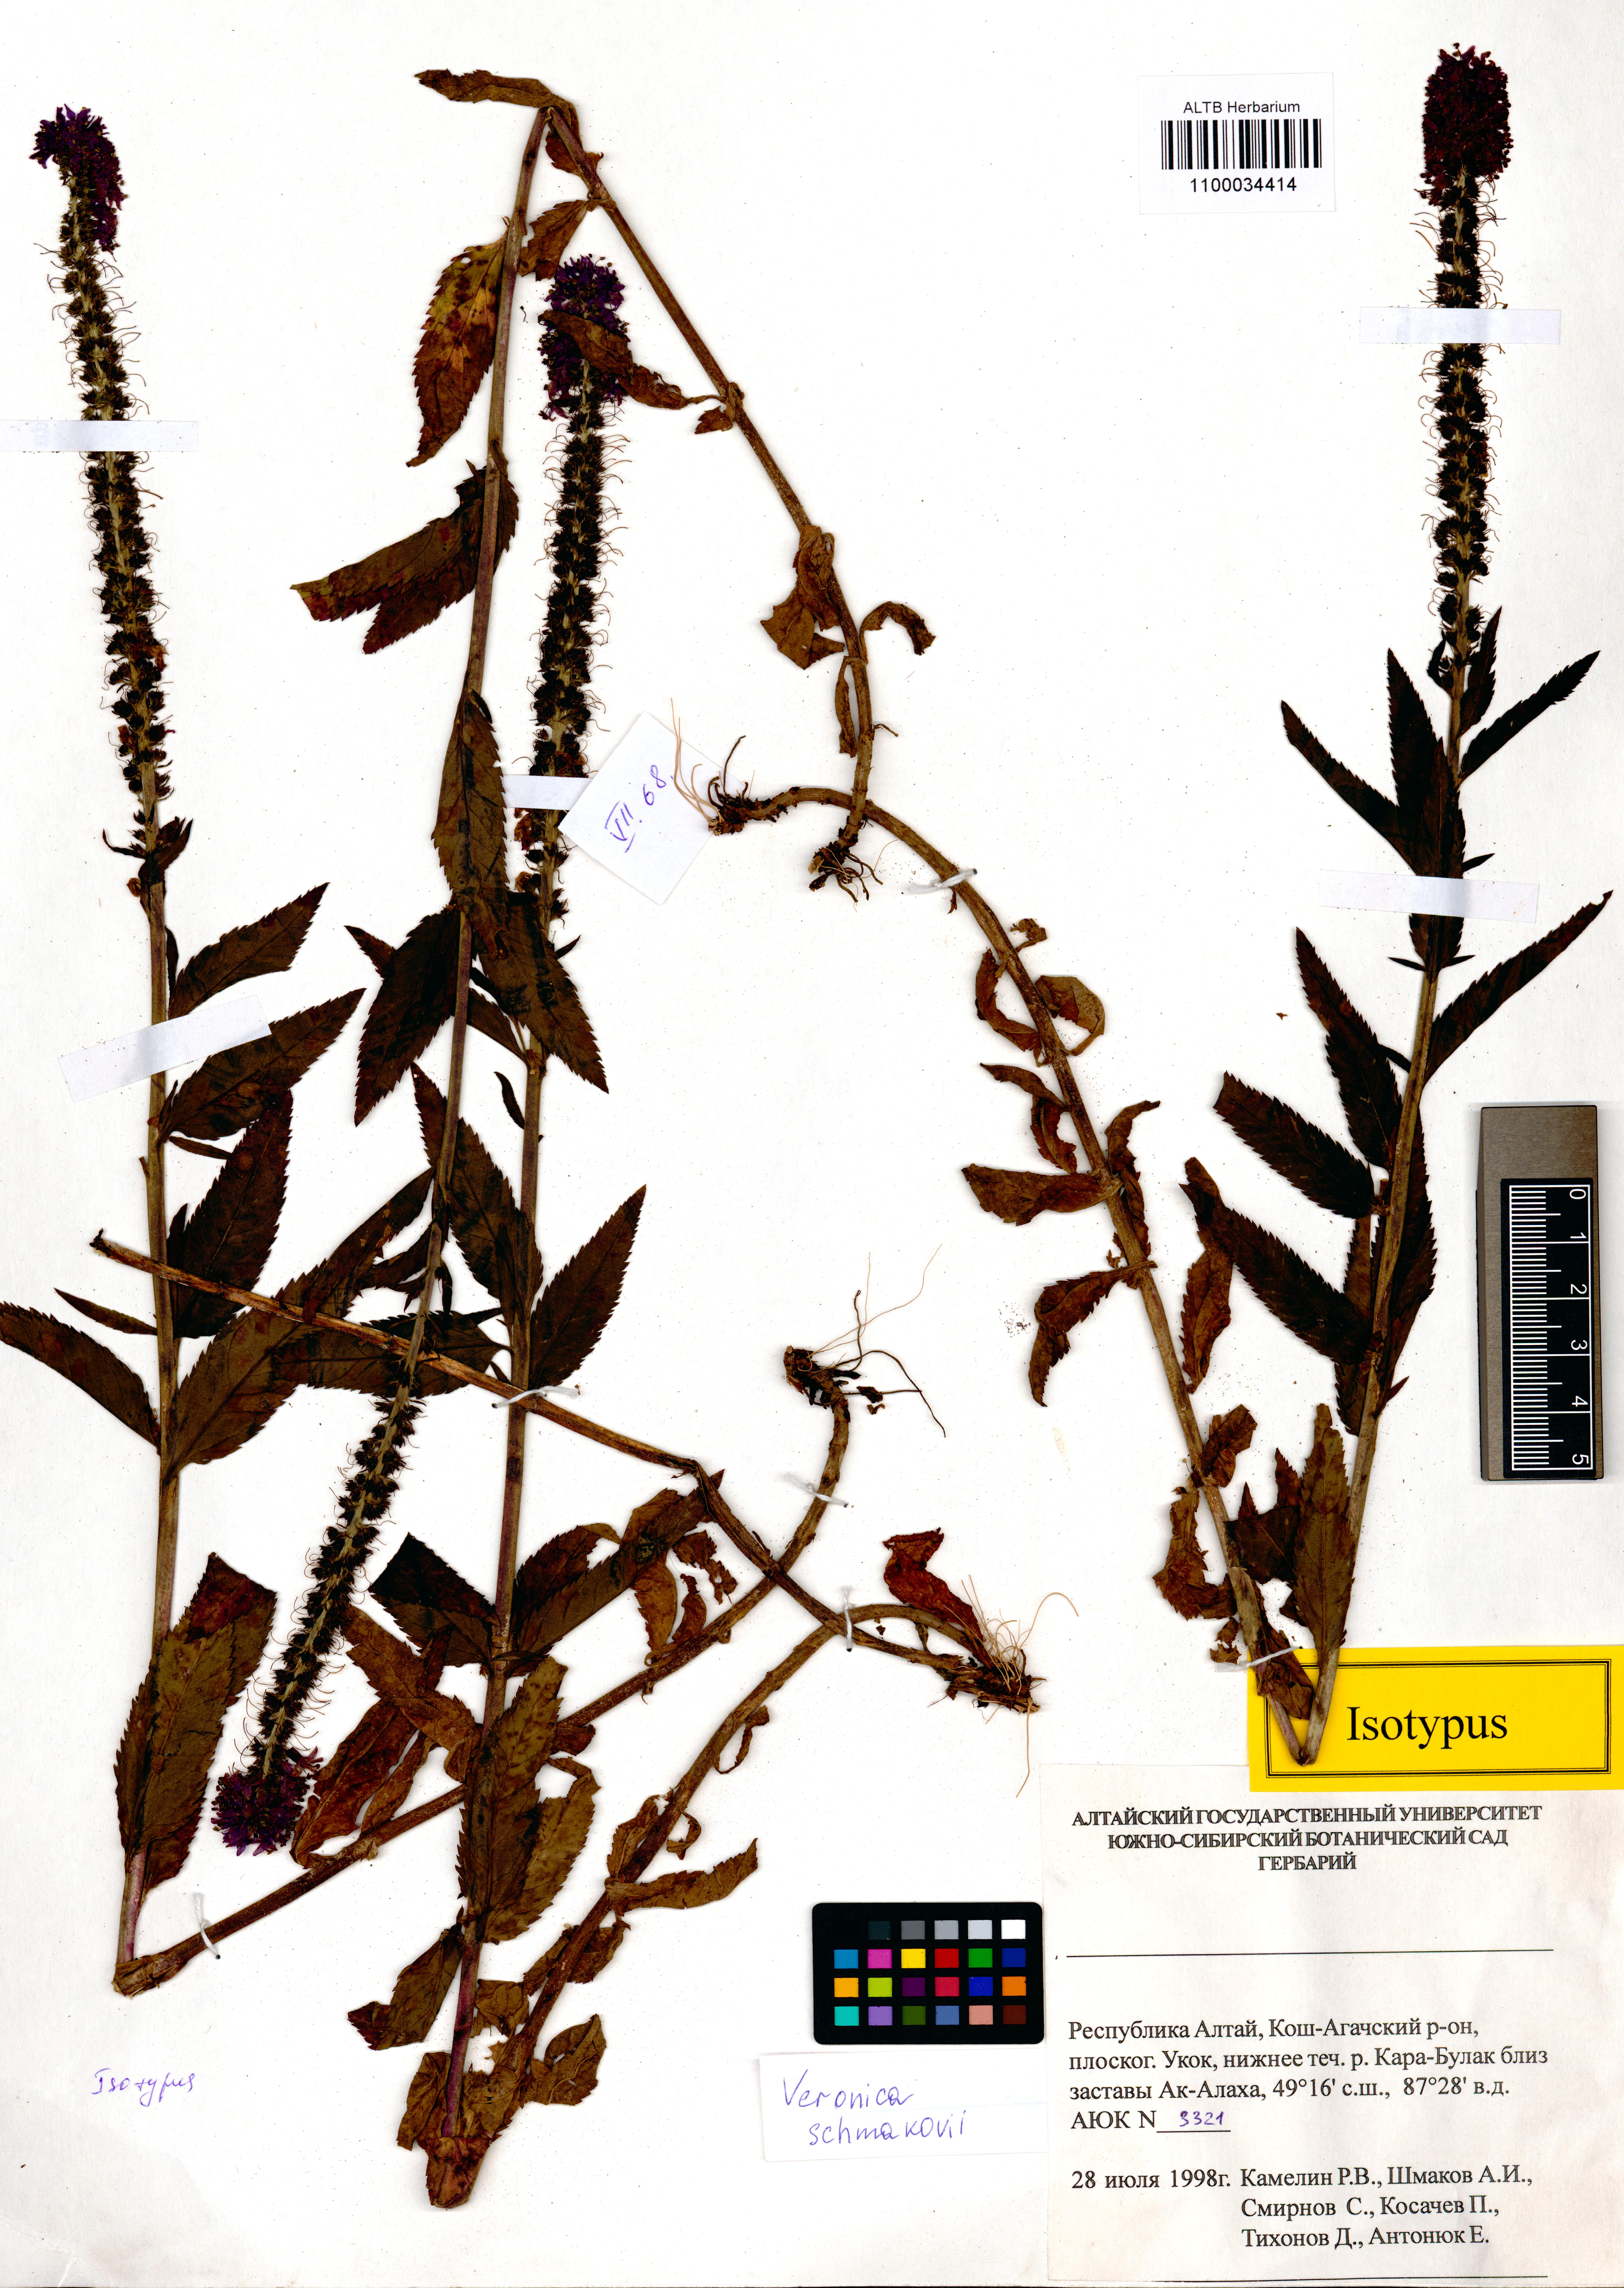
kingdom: Plantae
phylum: Tracheophyta
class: Magnoliopsida
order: Lamiales
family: Plantaginaceae
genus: Veronica
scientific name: Veronica schmakovii
